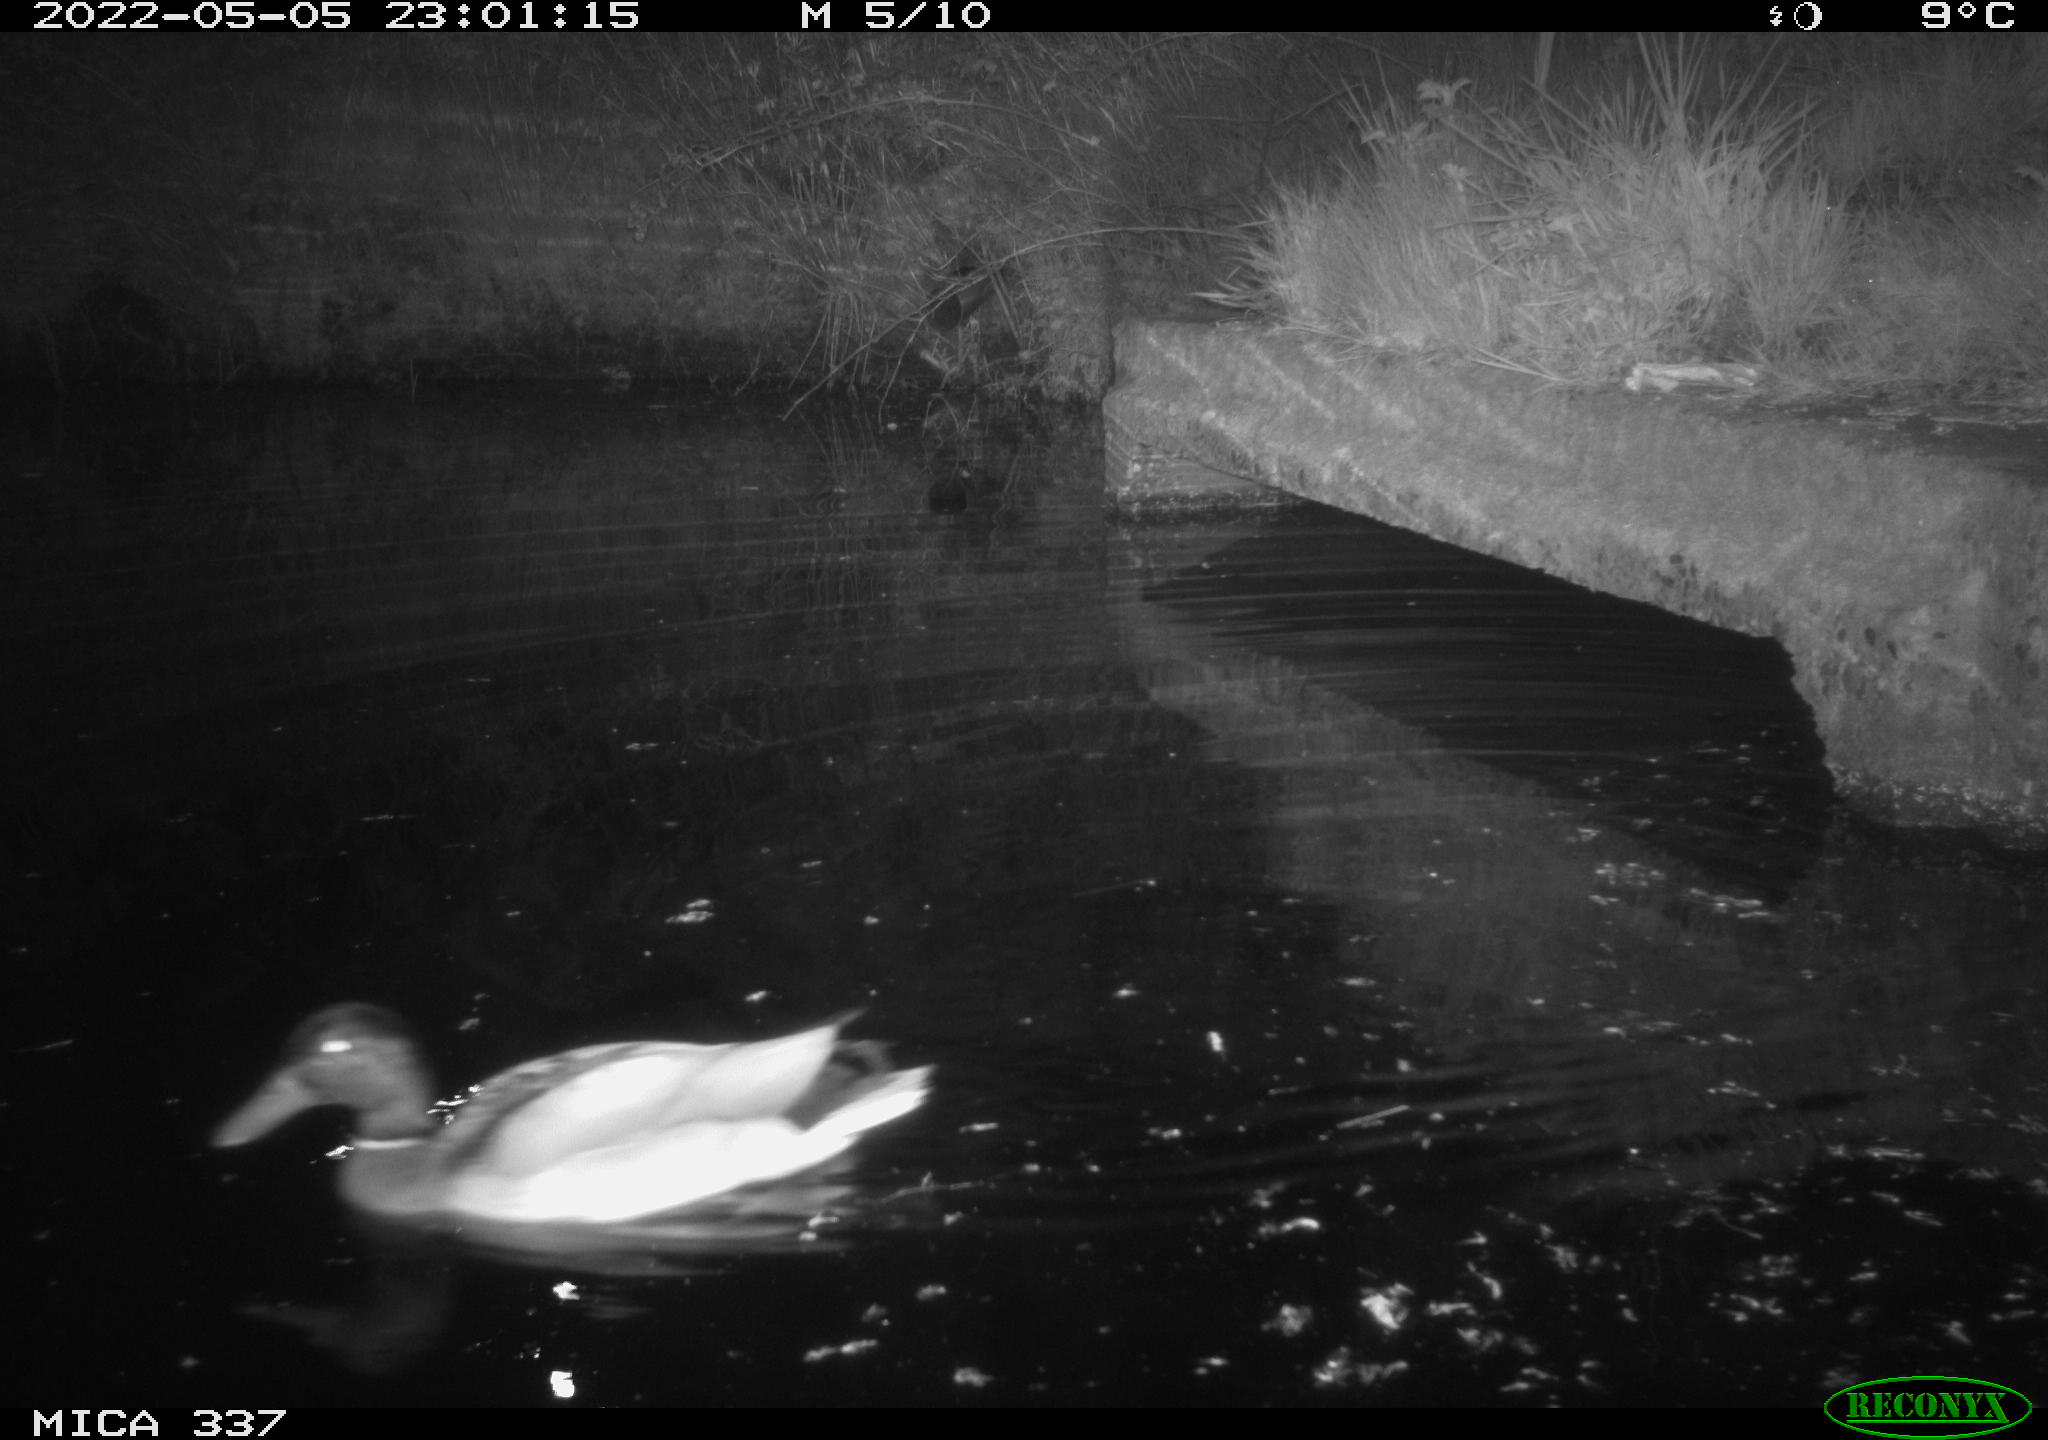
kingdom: Animalia
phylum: Chordata
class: Aves
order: Anseriformes
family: Anatidae
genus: Anas
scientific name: Anas platyrhynchos
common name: Mallard
